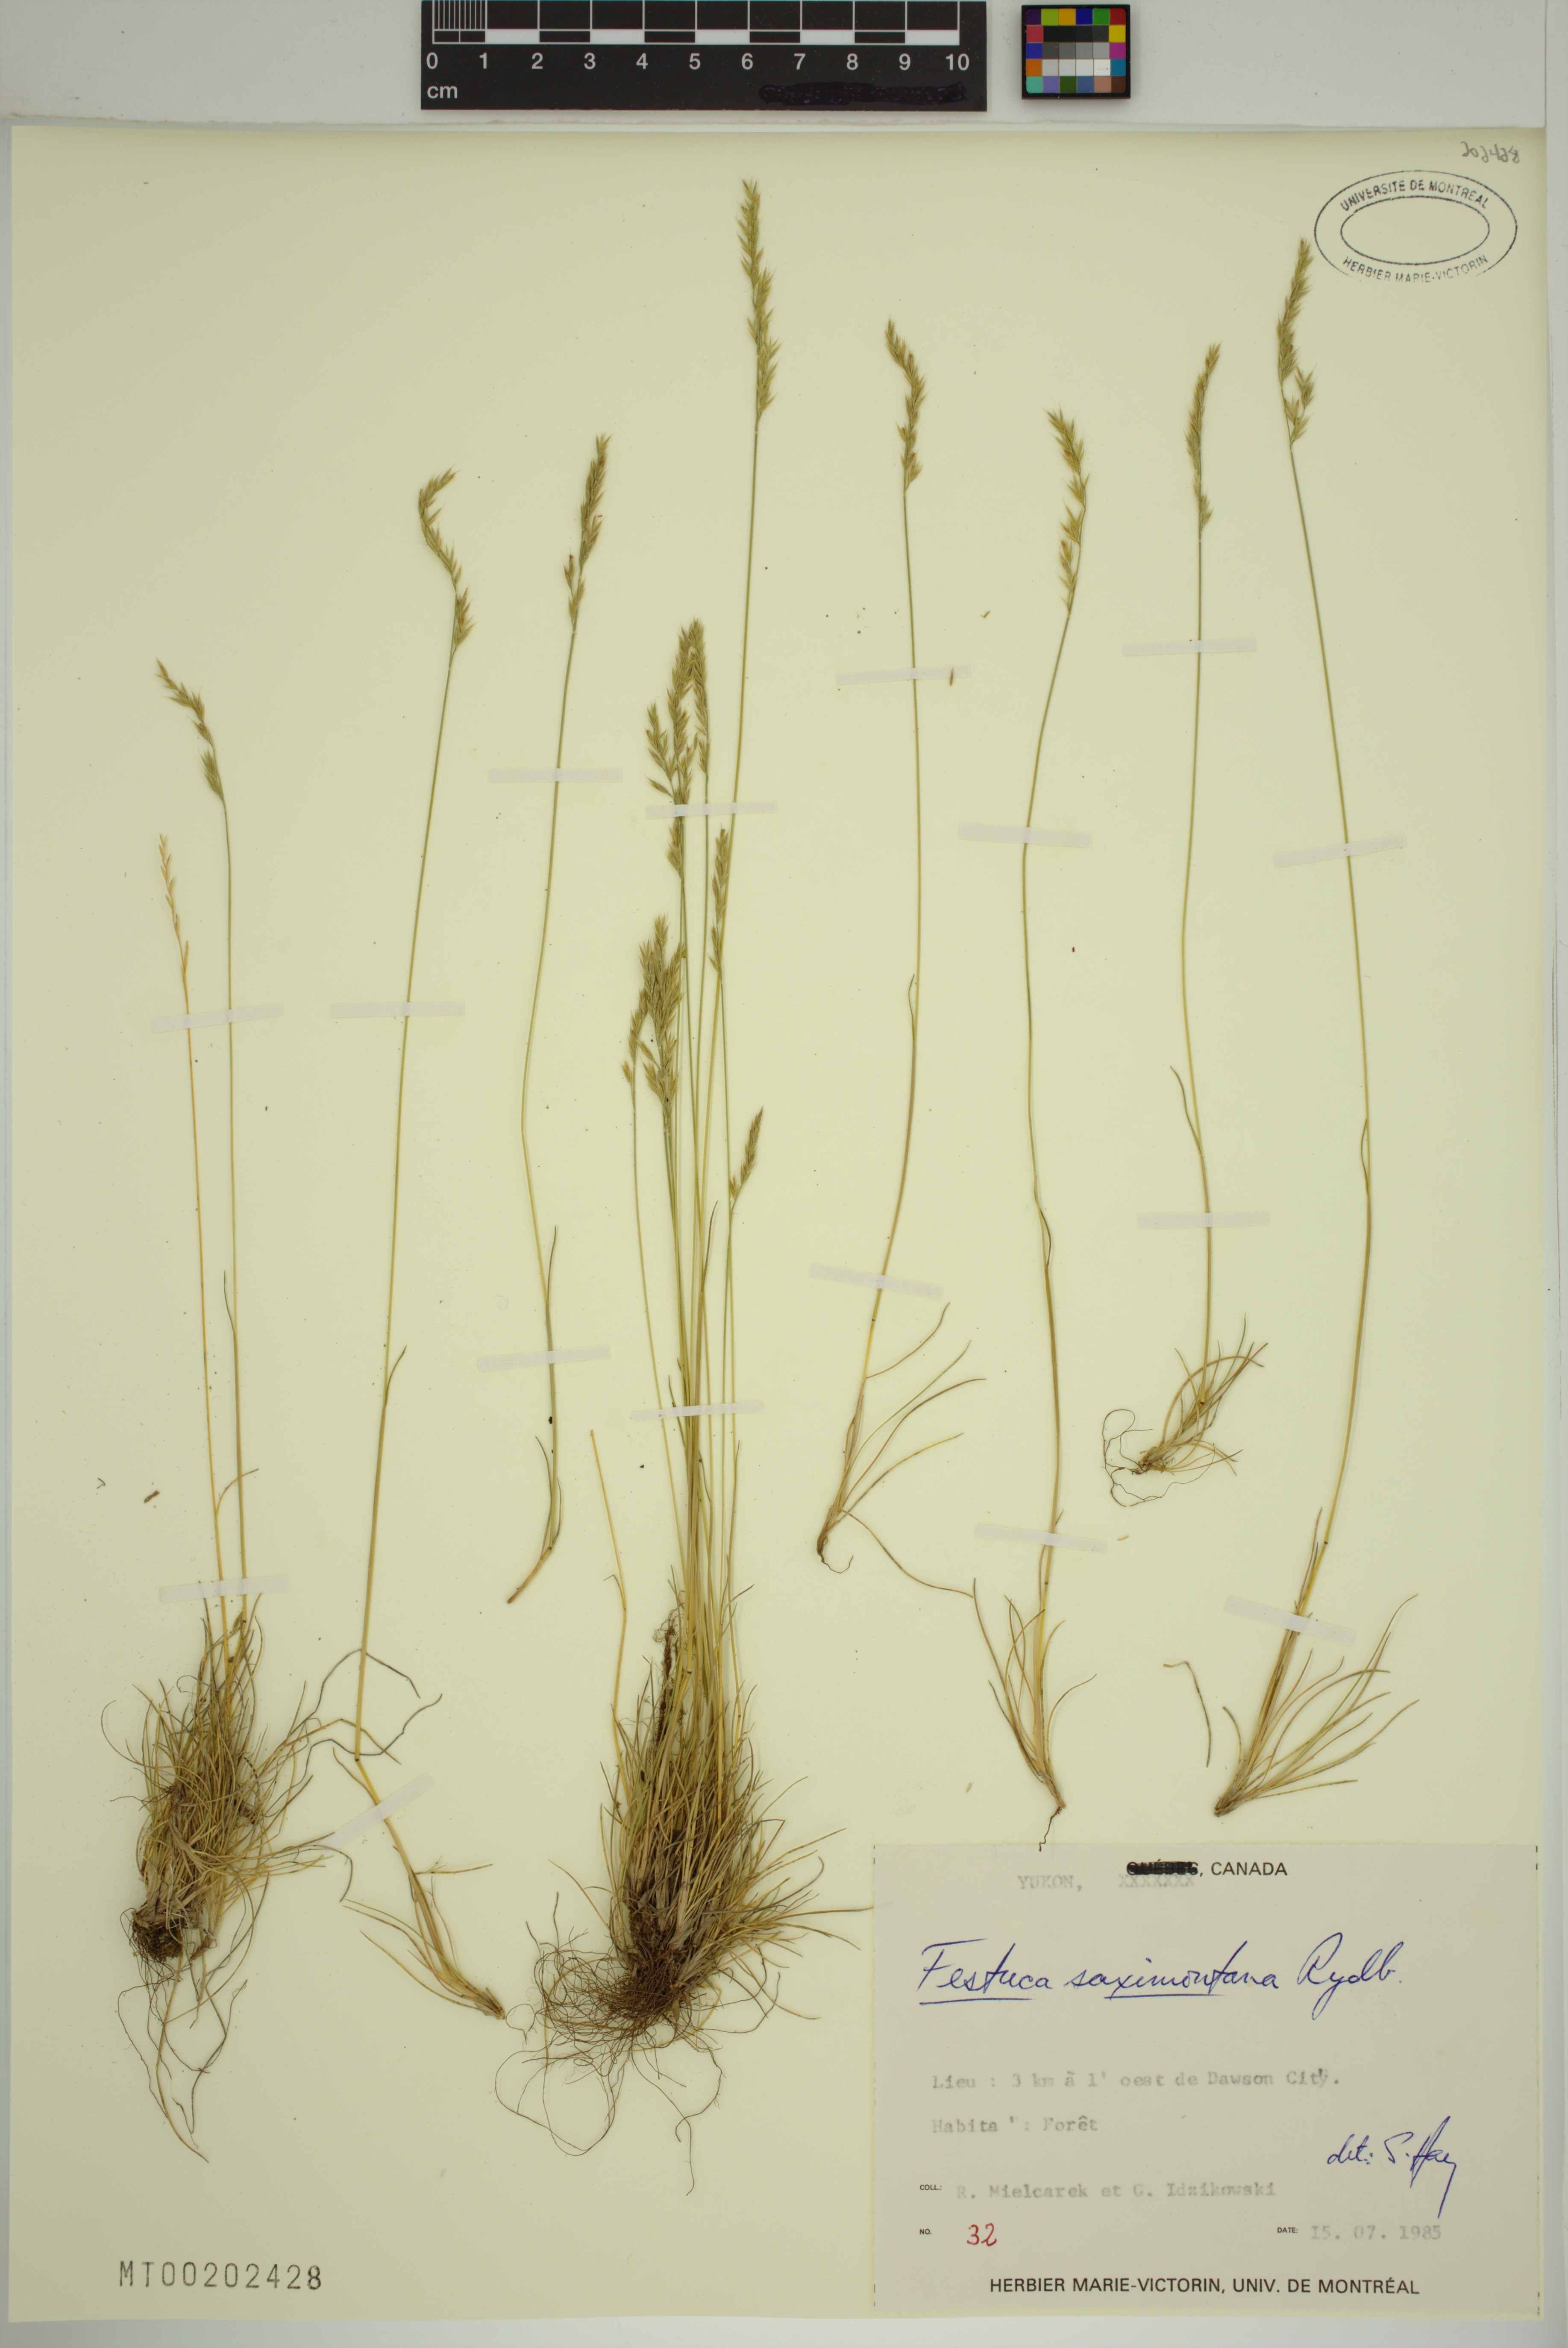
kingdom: Plantae
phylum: Tracheophyta
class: Liliopsida
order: Poales
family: Poaceae
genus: Festuca
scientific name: Festuca saximontana
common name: Mountain fescue
